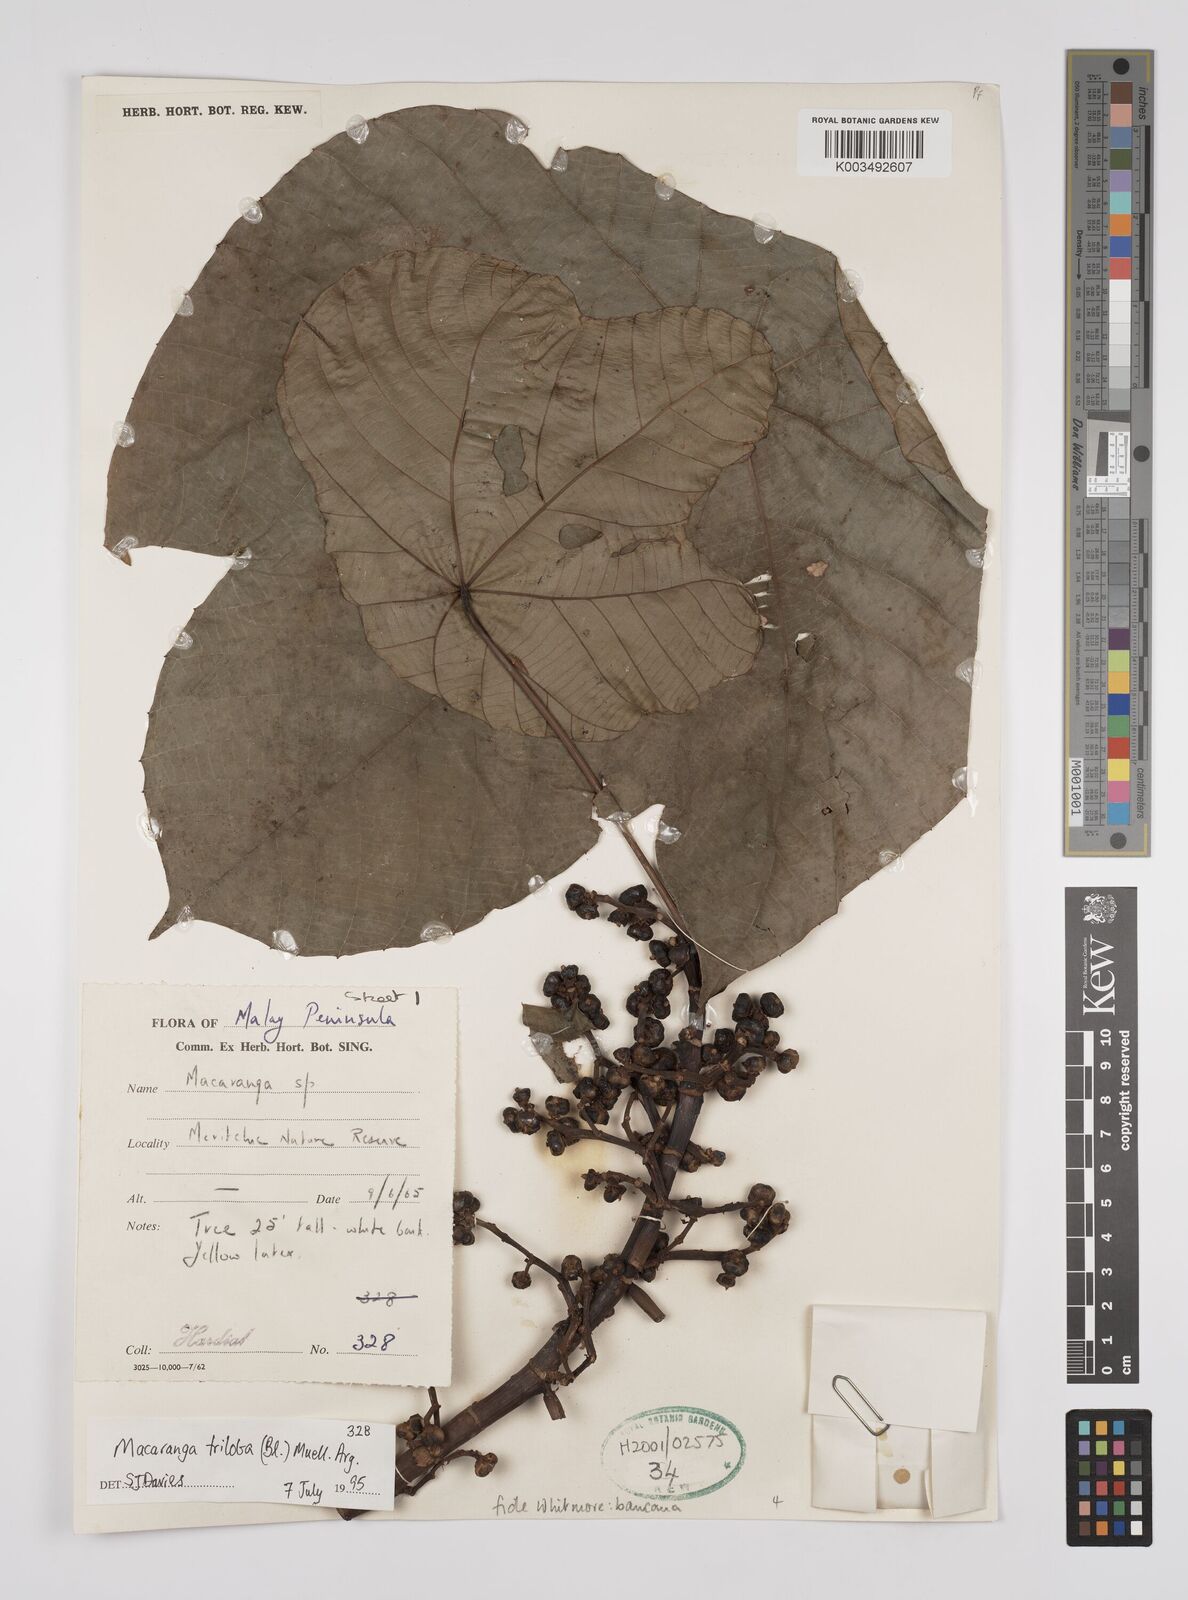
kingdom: Plantae
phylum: Tracheophyta
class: Magnoliopsida
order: Malpighiales
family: Euphorbiaceae
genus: Macaranga
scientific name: Macaranga bancana
